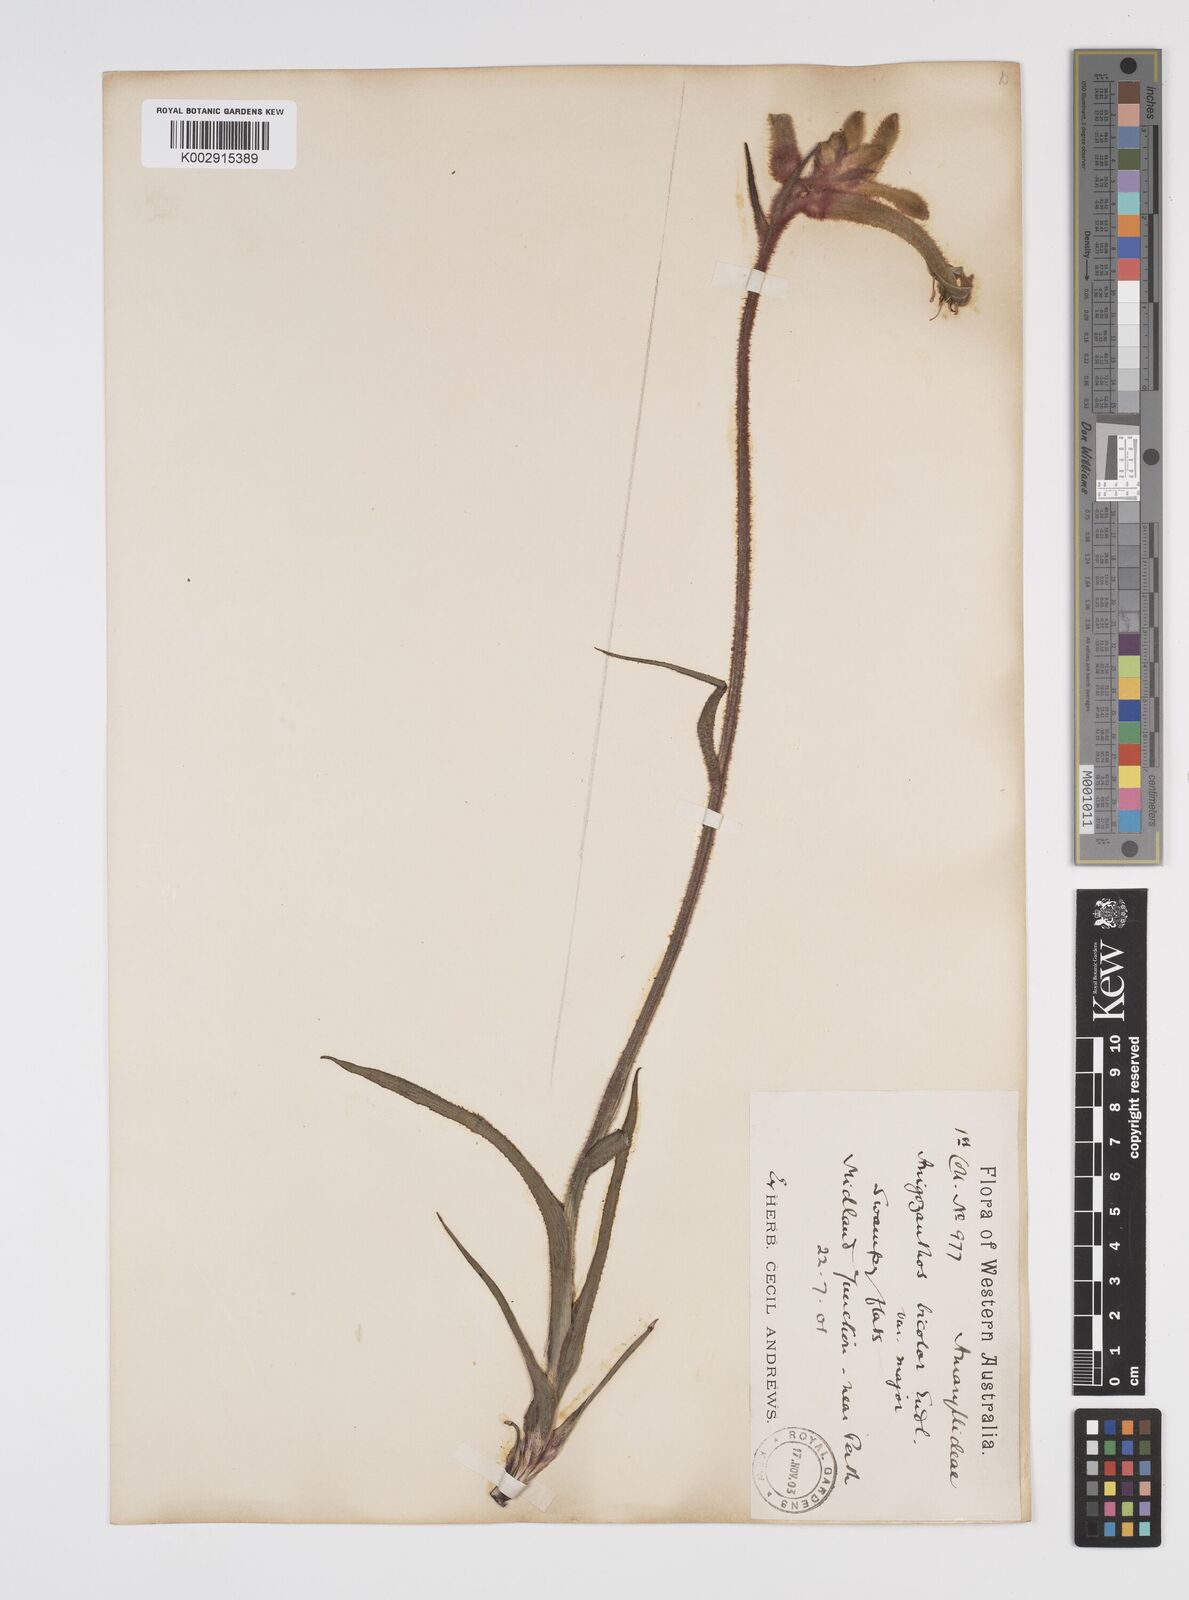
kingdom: Plantae
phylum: Tracheophyta
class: Liliopsida
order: Commelinales
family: Haemodoraceae
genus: Anigozanthos
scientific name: Anigozanthos bicolor
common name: Little kangaroo-paw
